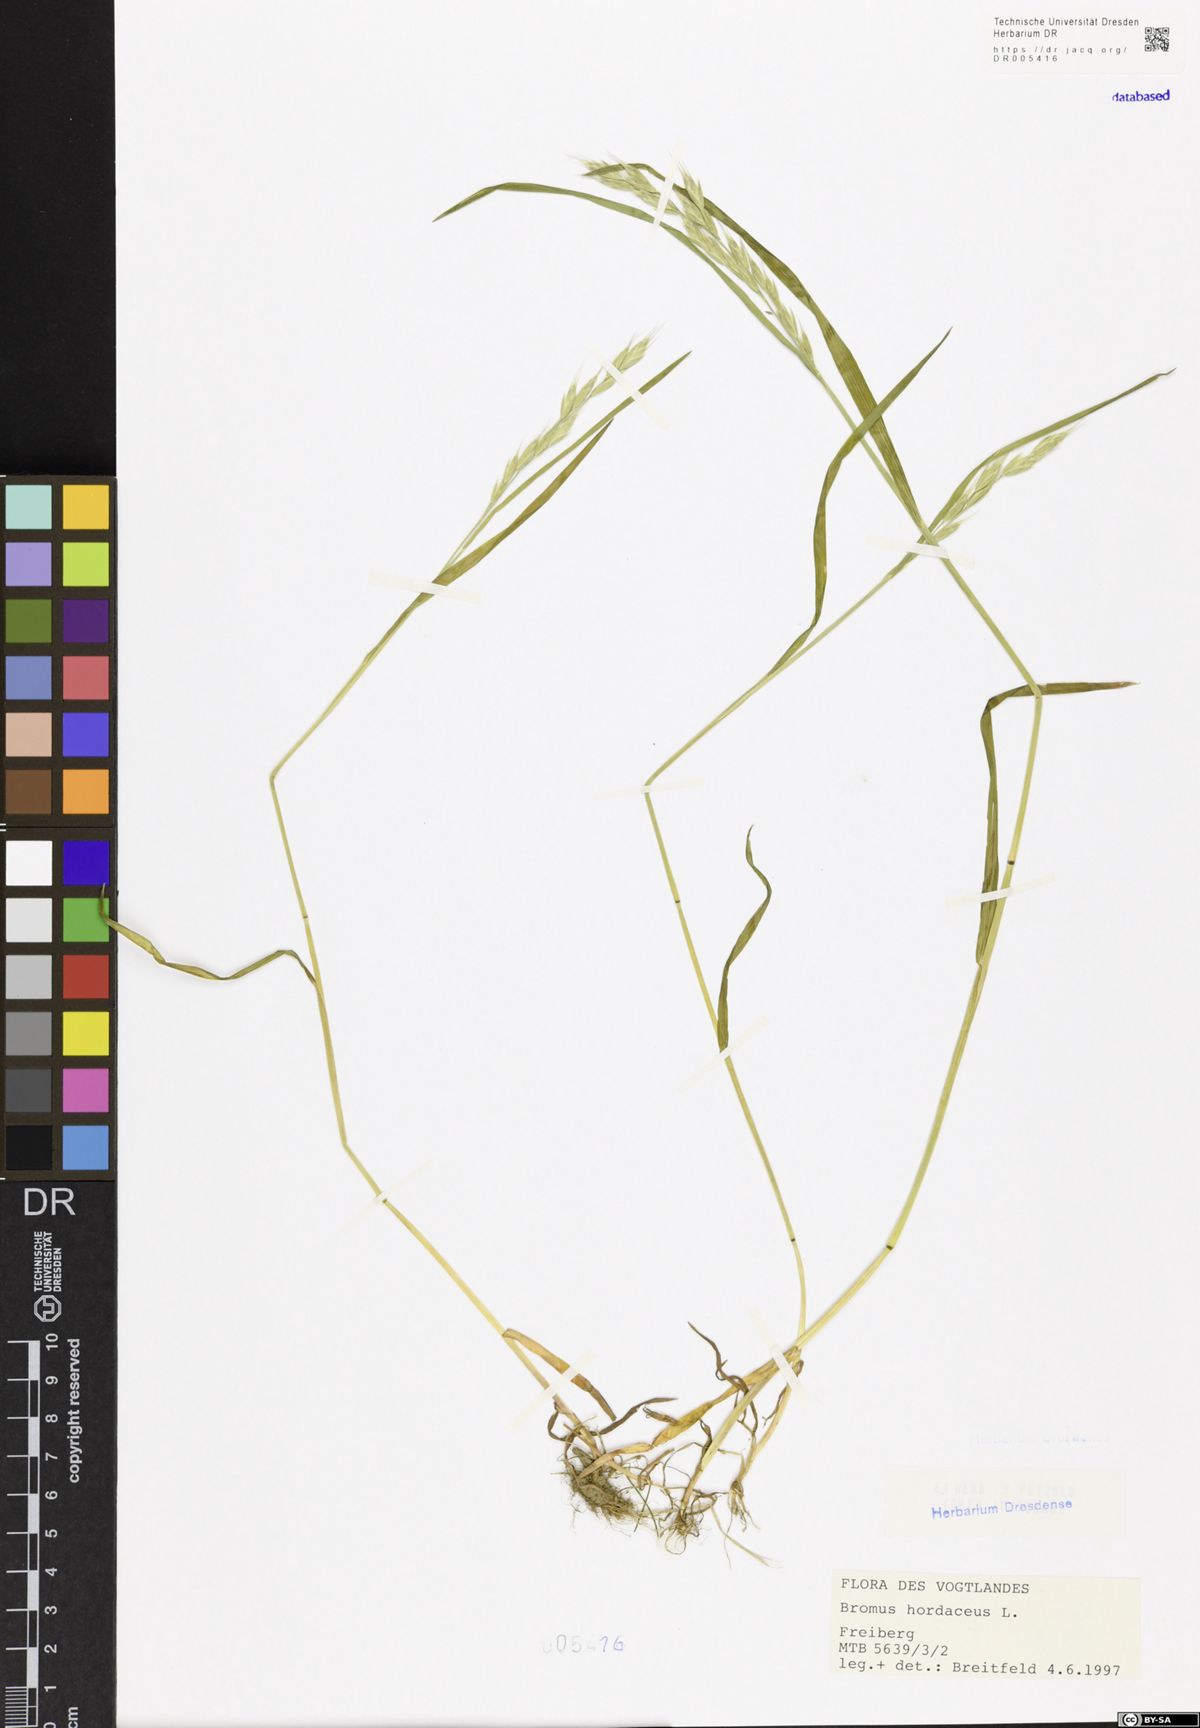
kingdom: Plantae
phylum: Tracheophyta
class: Liliopsida
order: Poales
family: Poaceae
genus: Bromus
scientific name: Bromus hordeaceus
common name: Soft brome
